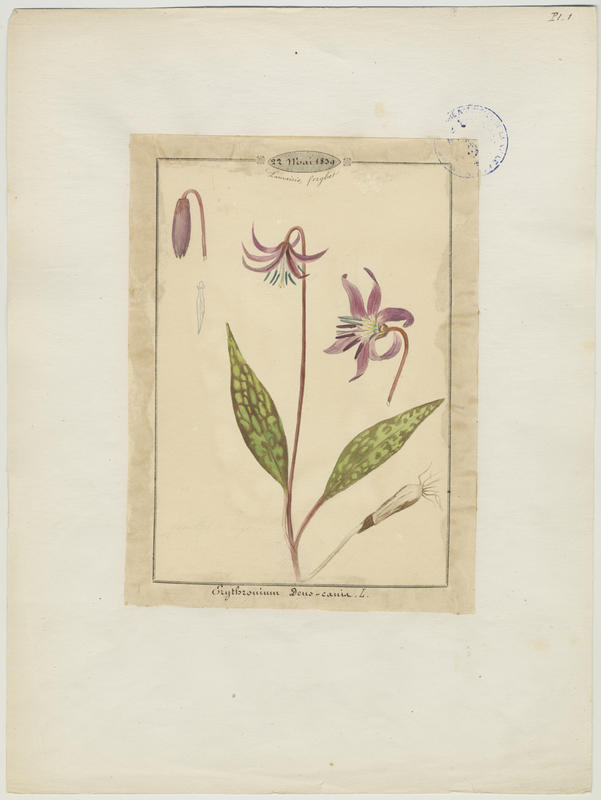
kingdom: Plantae
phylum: Tracheophyta
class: Liliopsida
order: Liliales
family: Liliaceae
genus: Erythronium
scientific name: Erythronium dens-canis
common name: Dog's-tooth-violet
